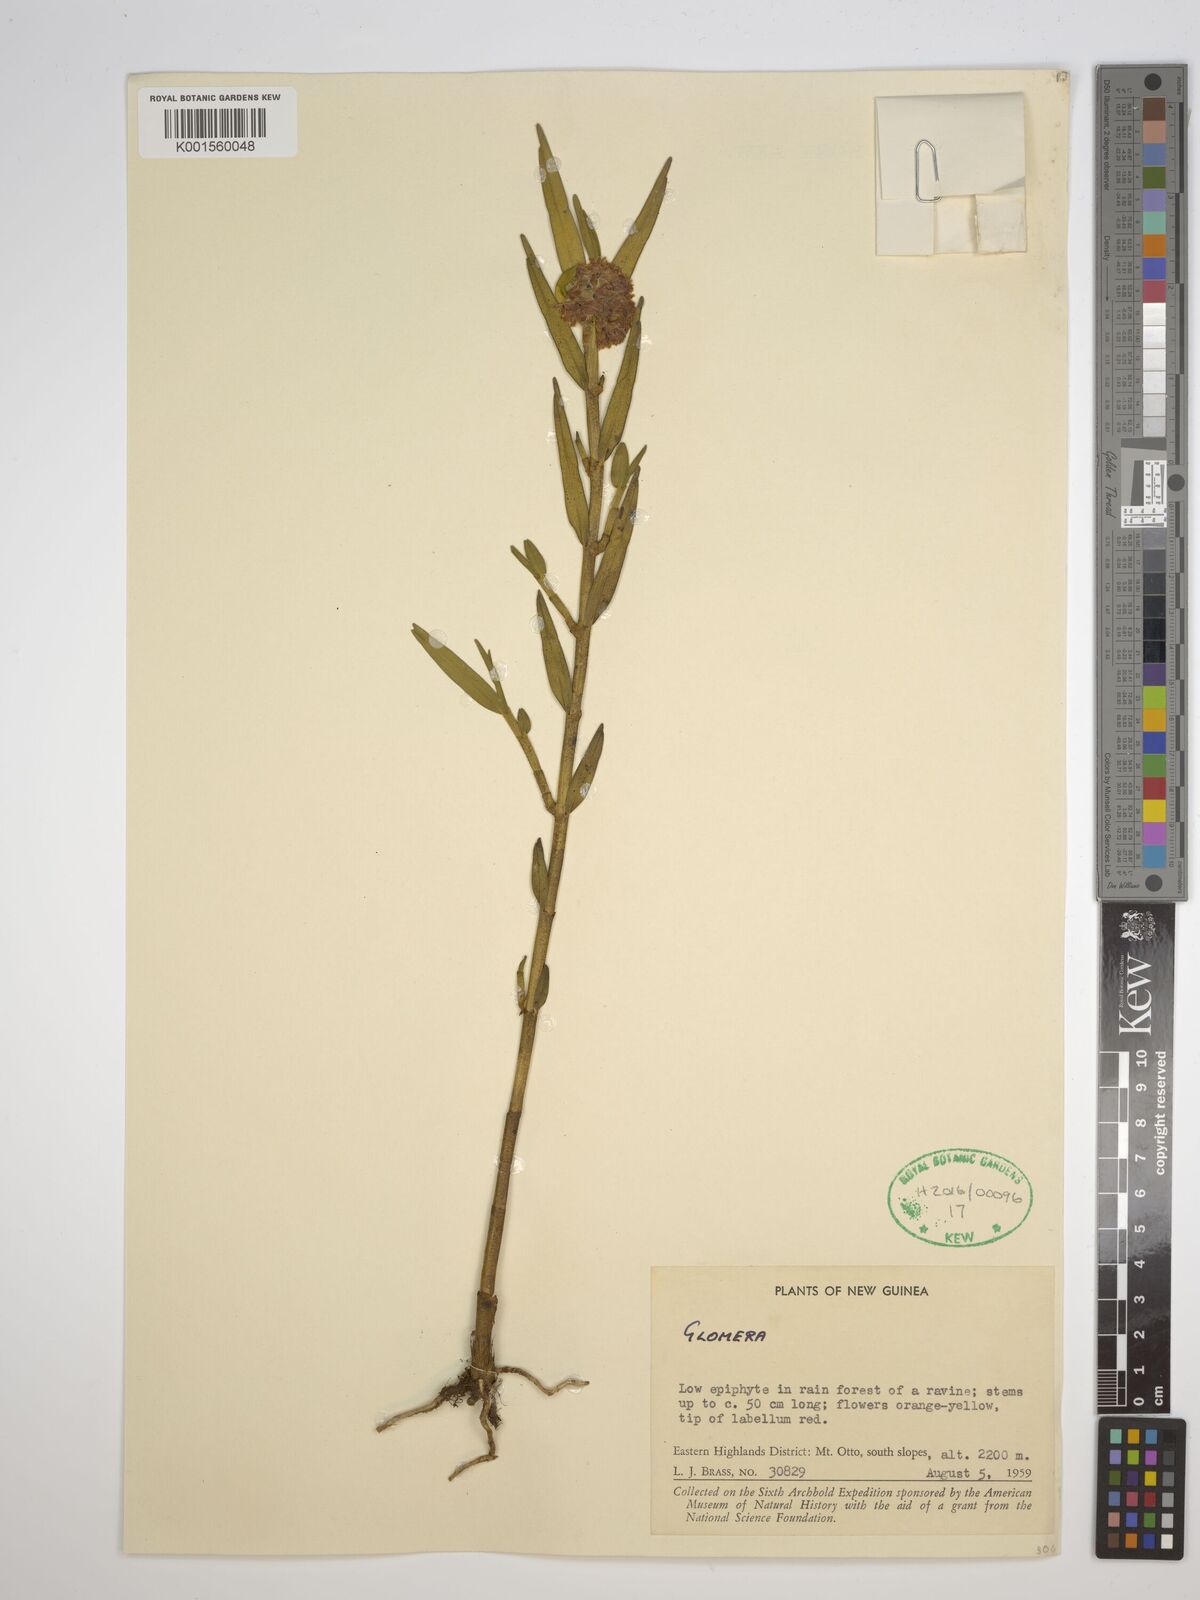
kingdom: Plantae
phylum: Tracheophyta
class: Liliopsida
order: Asparagales
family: Orchidaceae
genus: Glomera
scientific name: Glomera
